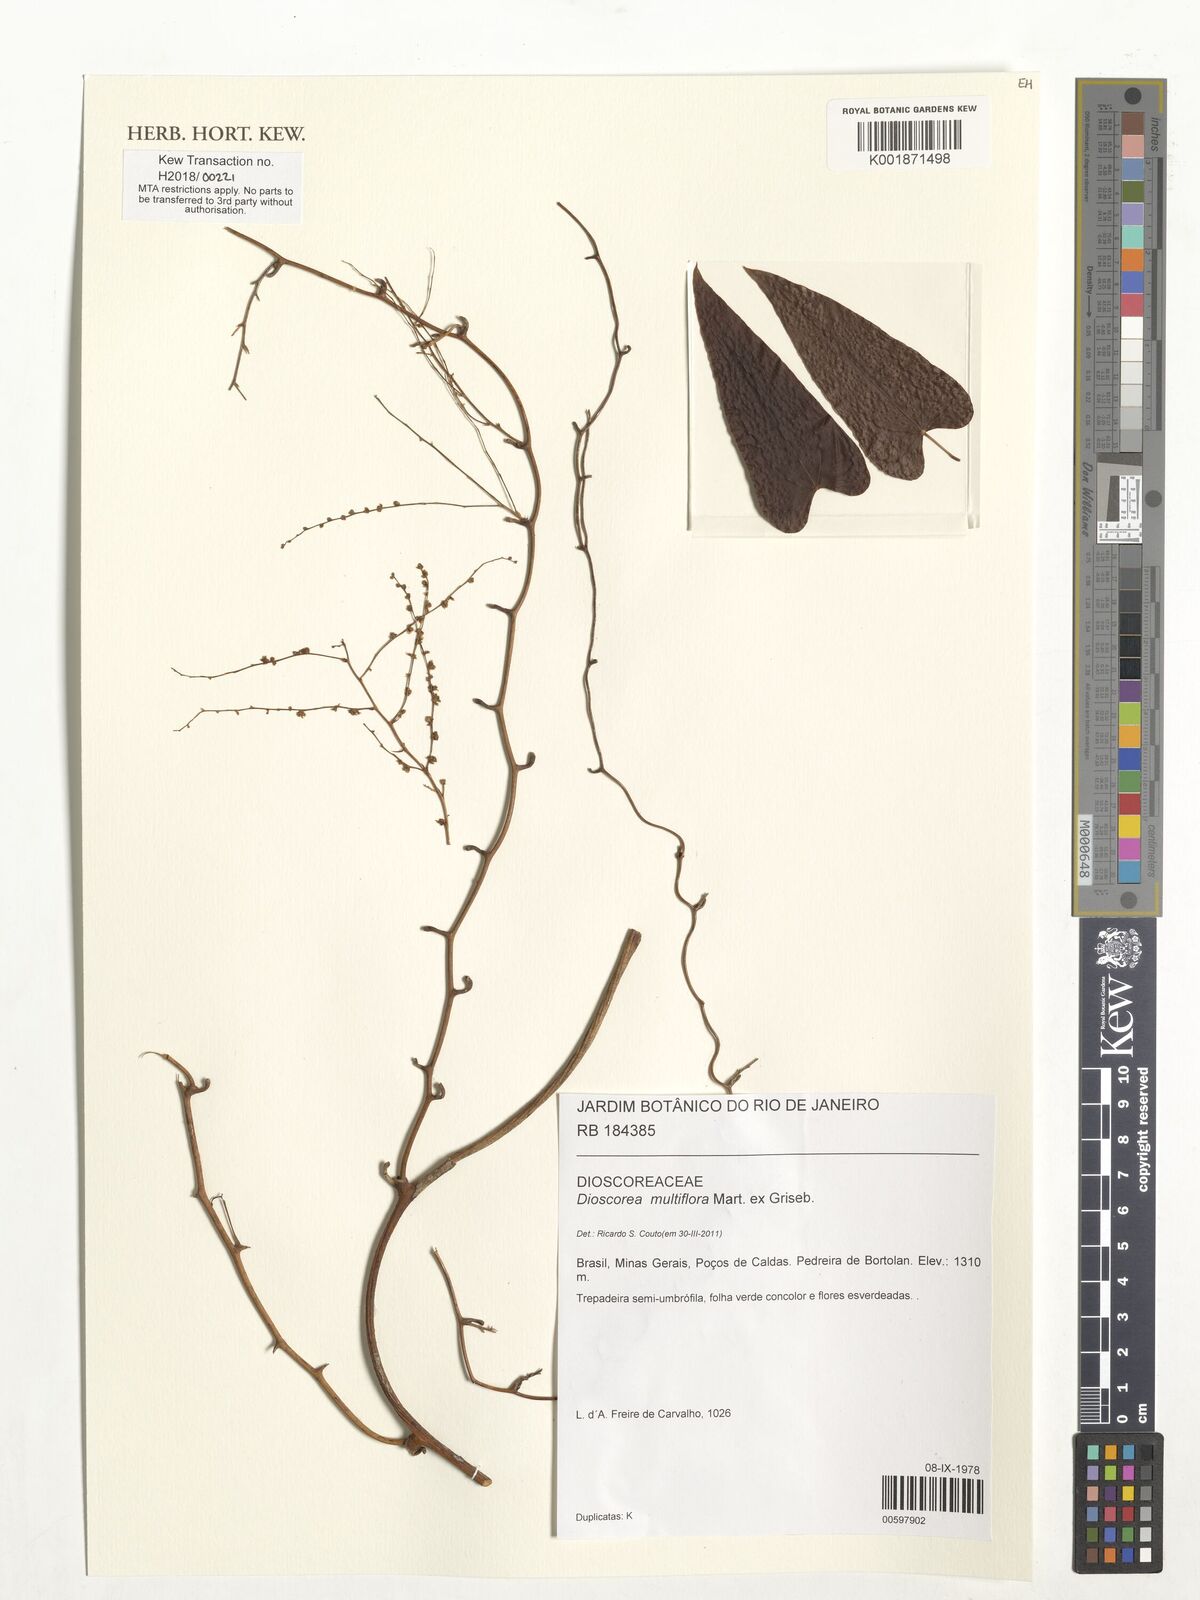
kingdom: Plantae
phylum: Tracheophyta
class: Liliopsida
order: Dioscoreales
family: Dioscoreaceae
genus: Dioscorea
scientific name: Dioscorea multiflora
